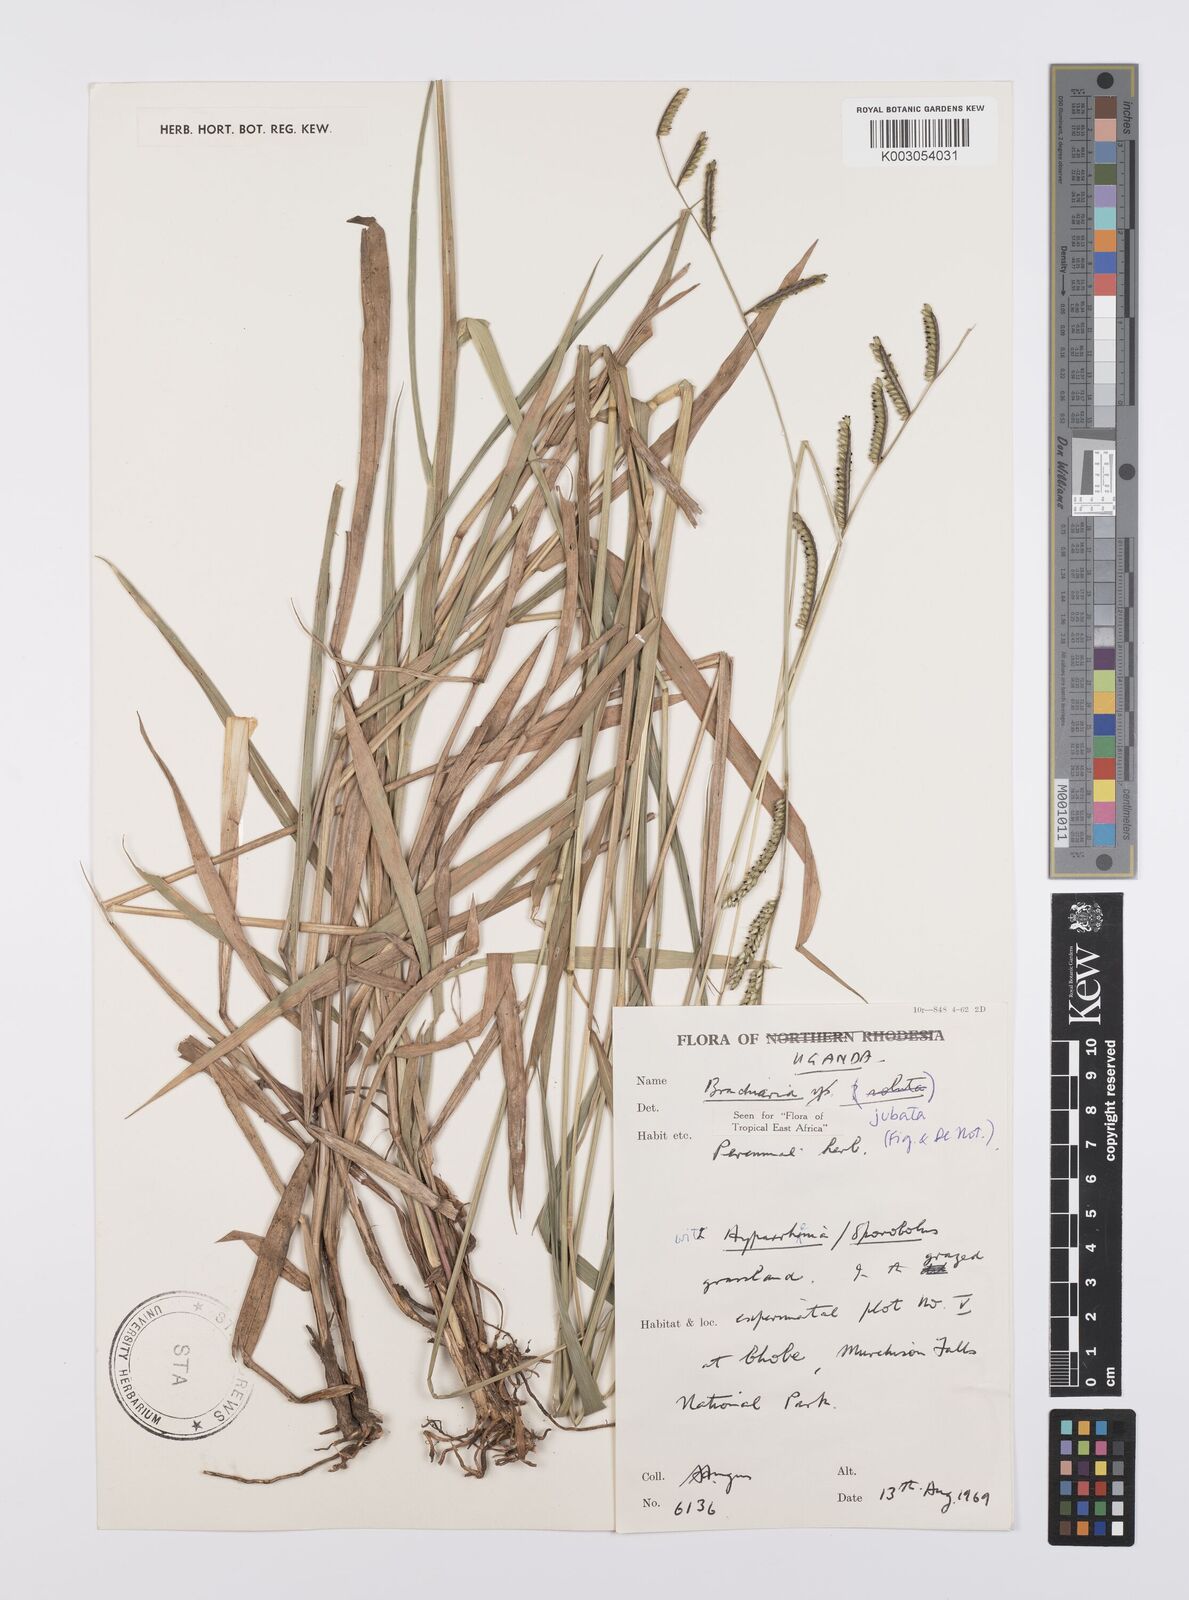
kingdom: Plantae
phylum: Tracheophyta
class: Liliopsida
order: Poales
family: Poaceae
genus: Urochloa
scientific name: Urochloa jubata
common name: Buffalograss
